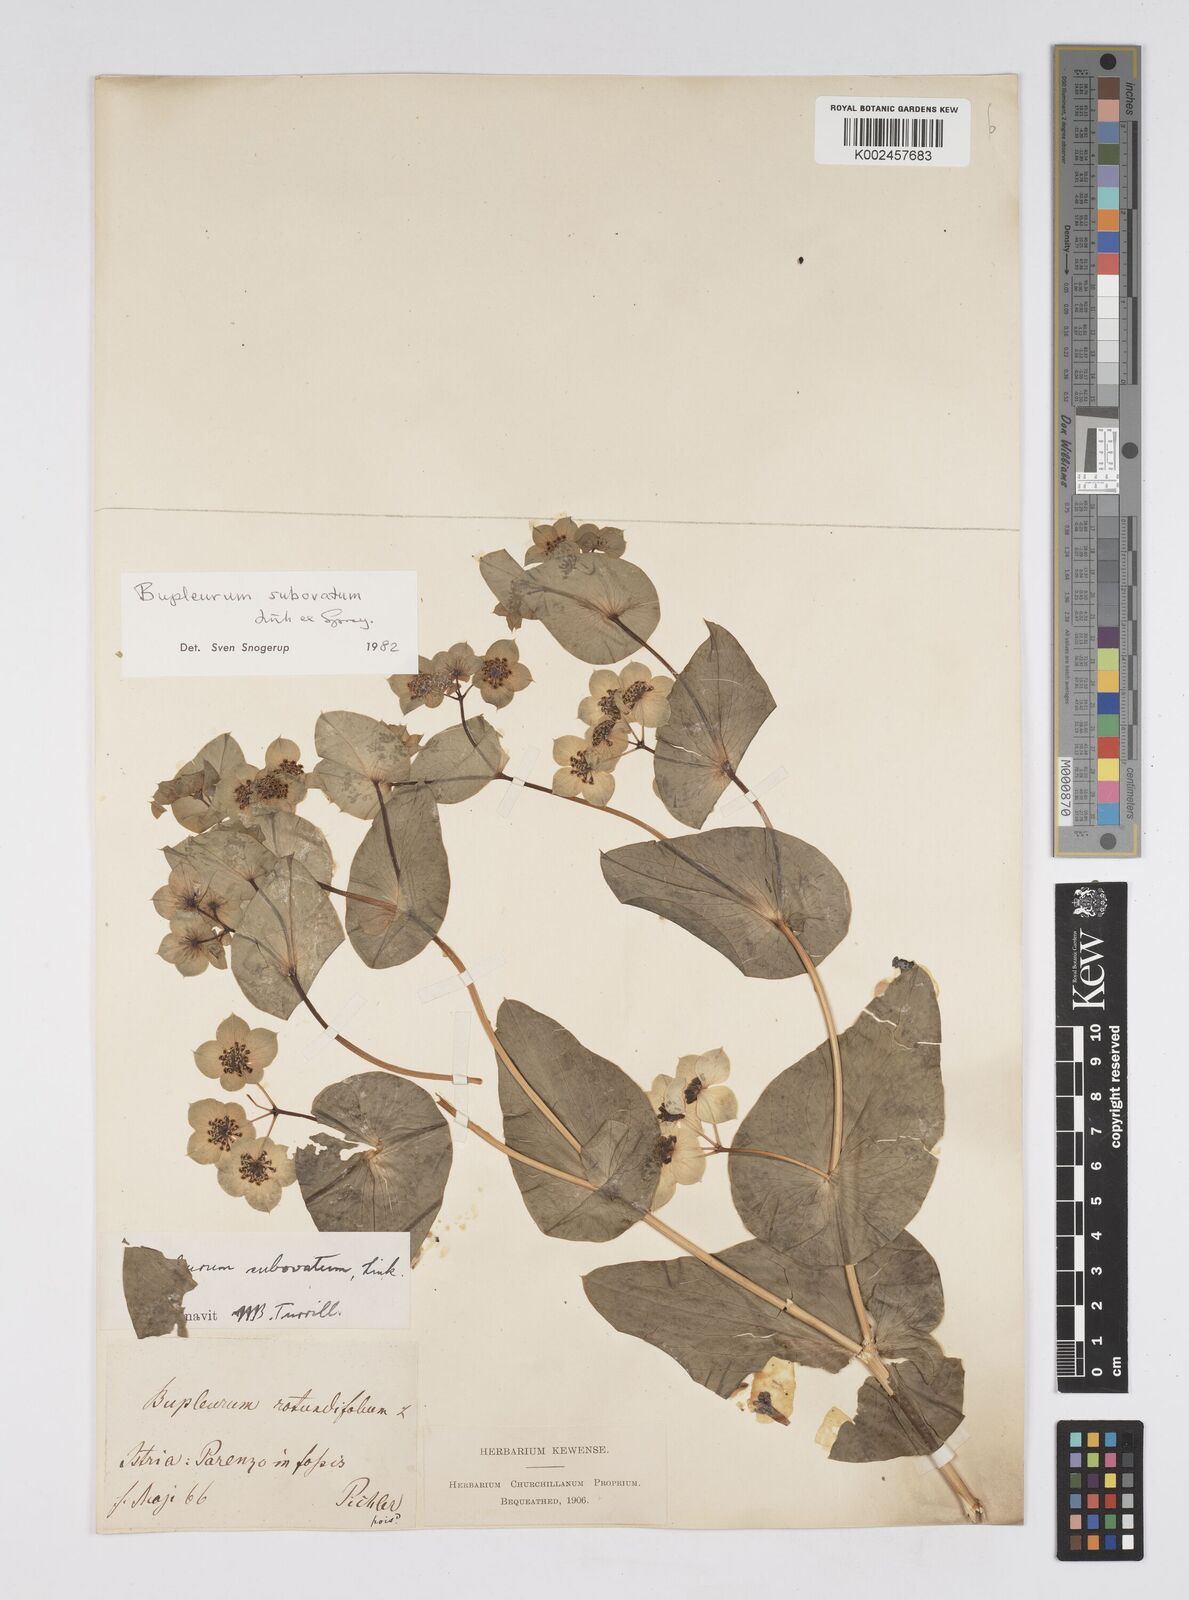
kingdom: Plantae
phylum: Tracheophyta
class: Magnoliopsida
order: Apiales
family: Apiaceae
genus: Bupleurum
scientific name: Bupleurum lancifolium
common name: False thorow-wax
